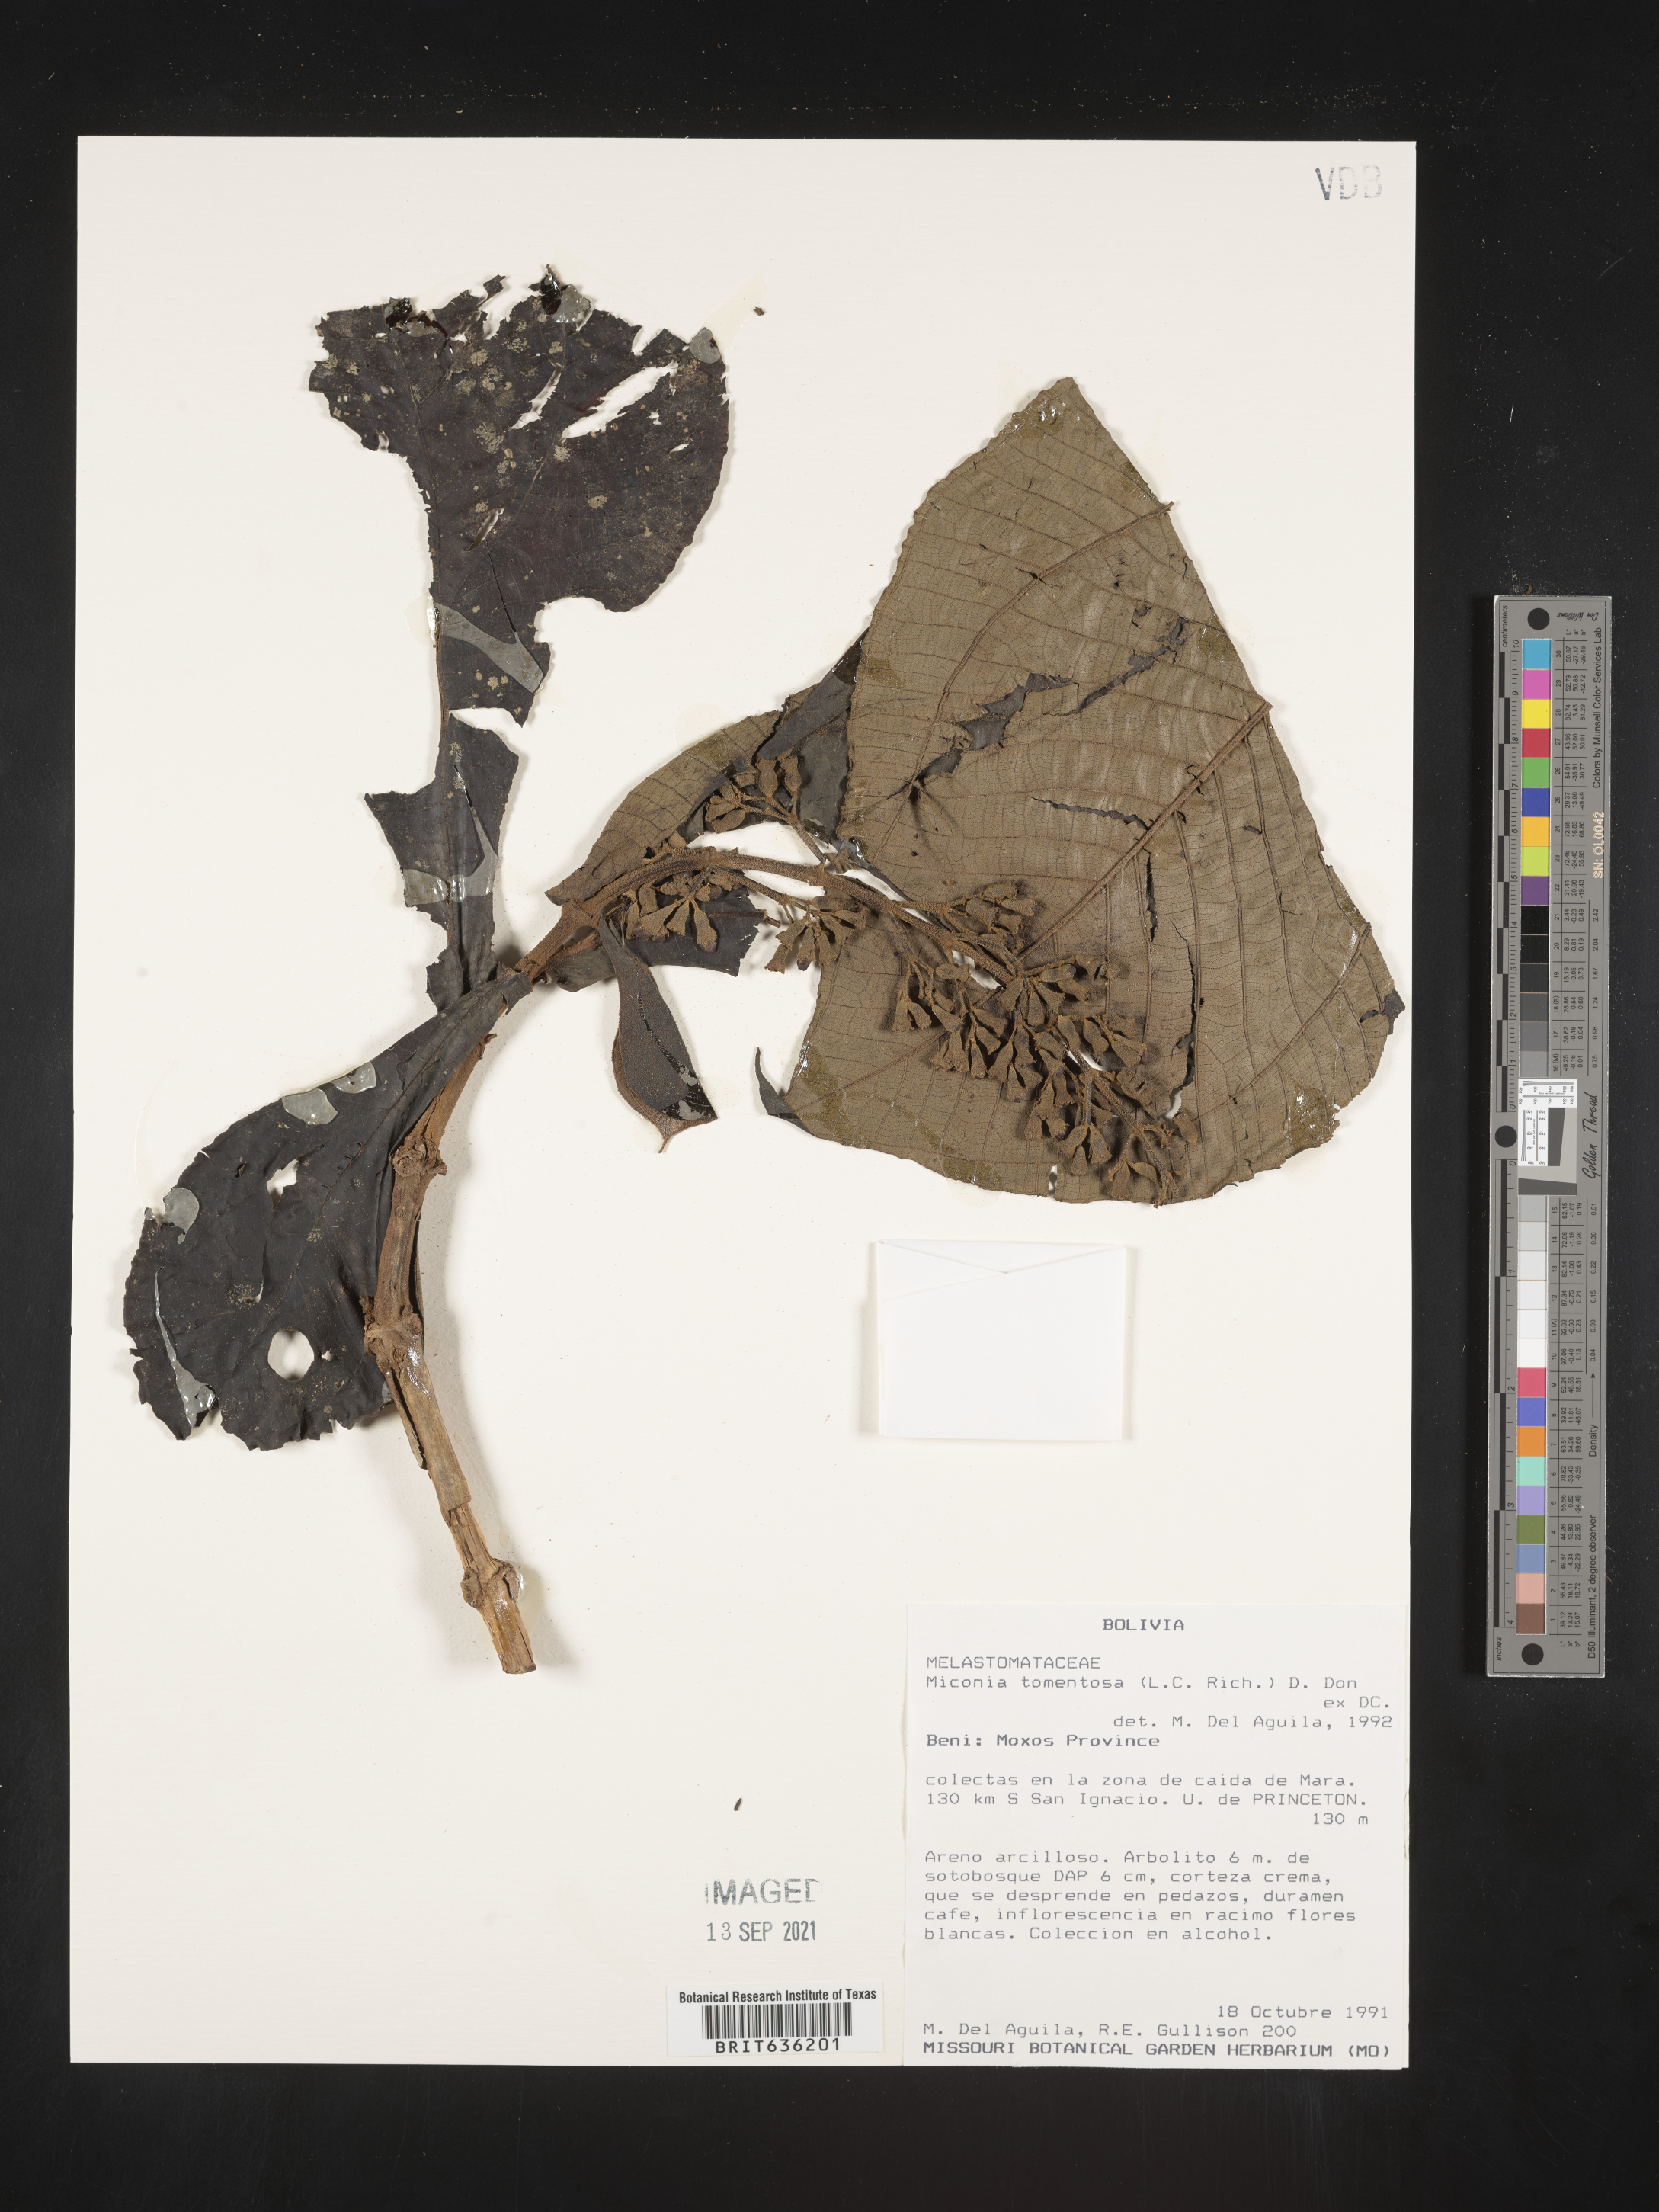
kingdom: Plantae
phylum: Tracheophyta
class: Magnoliopsida
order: Myrtales
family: Melastomataceae
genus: Miconia
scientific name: Miconia
